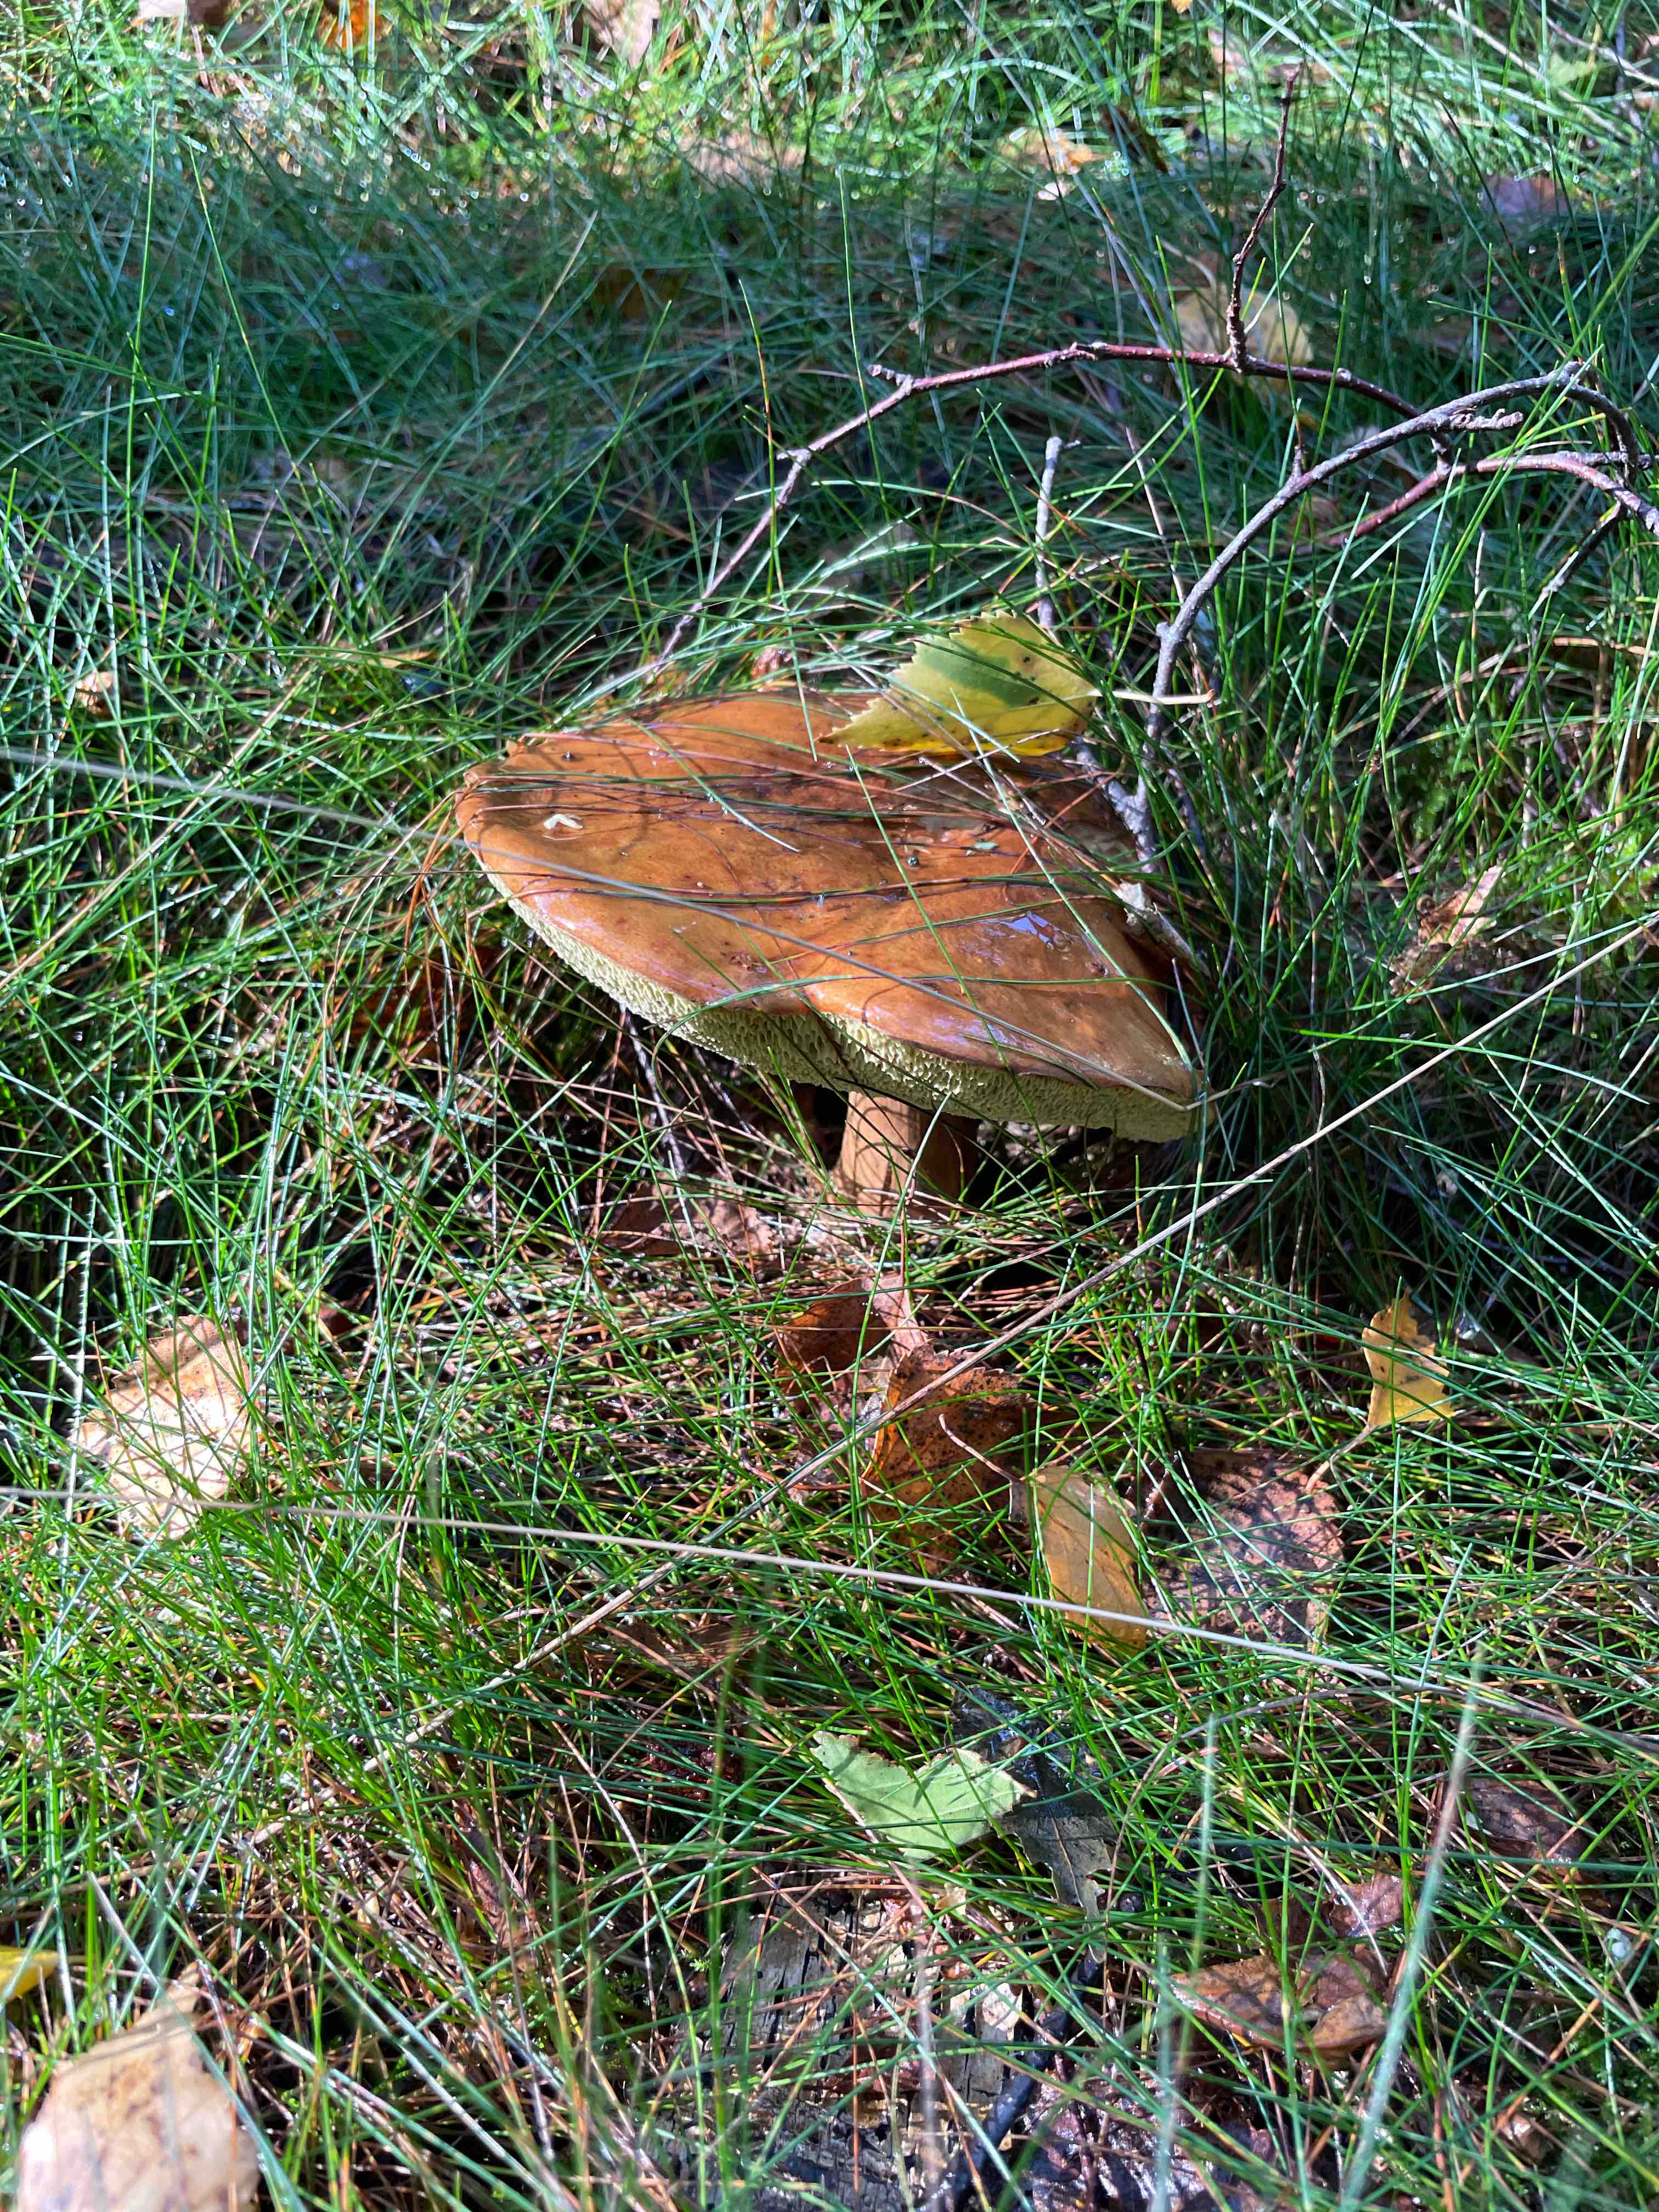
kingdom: Fungi
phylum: Basidiomycota
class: Agaricomycetes
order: Boletales
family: Boletaceae
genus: Imleria
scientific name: Imleria badia
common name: brunstokket rørhat
